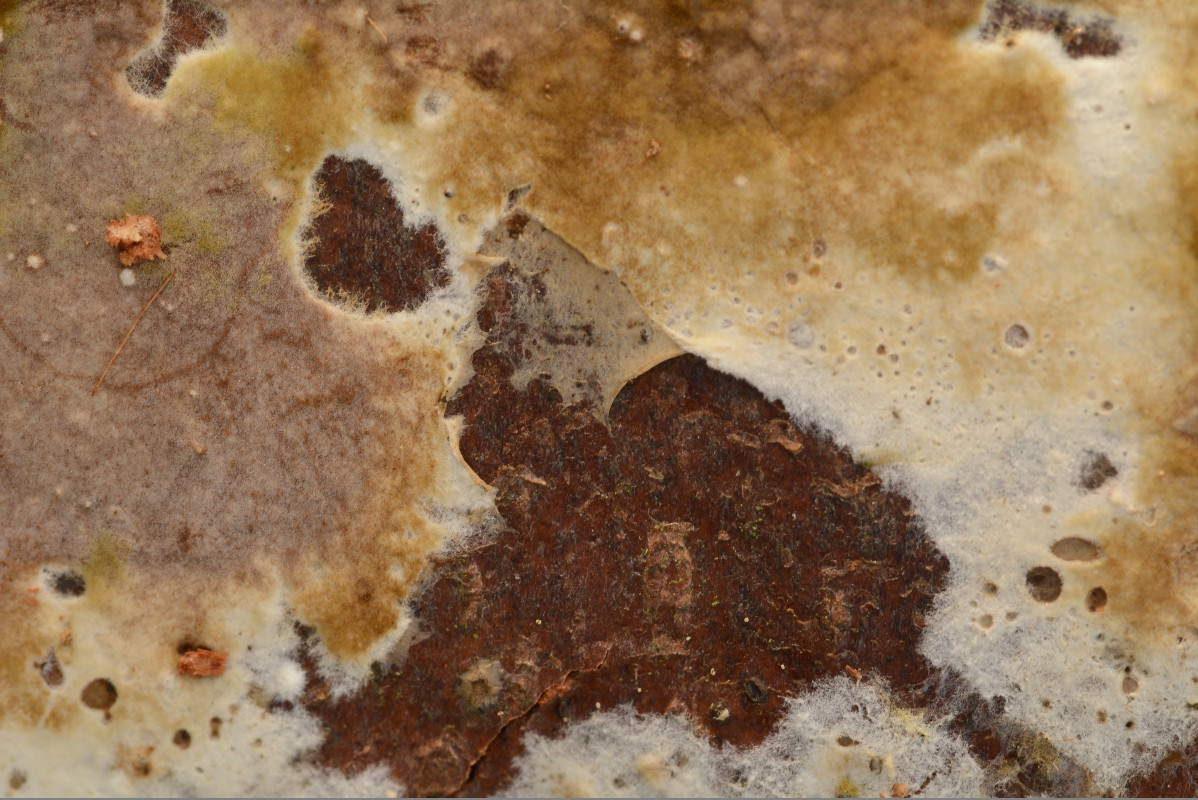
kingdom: Fungi
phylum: Basidiomycota
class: Agaricomycetes
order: Boletales
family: Coniophoraceae
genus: Coniophora
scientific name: Coniophora puteana
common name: gul tømmersvamp
